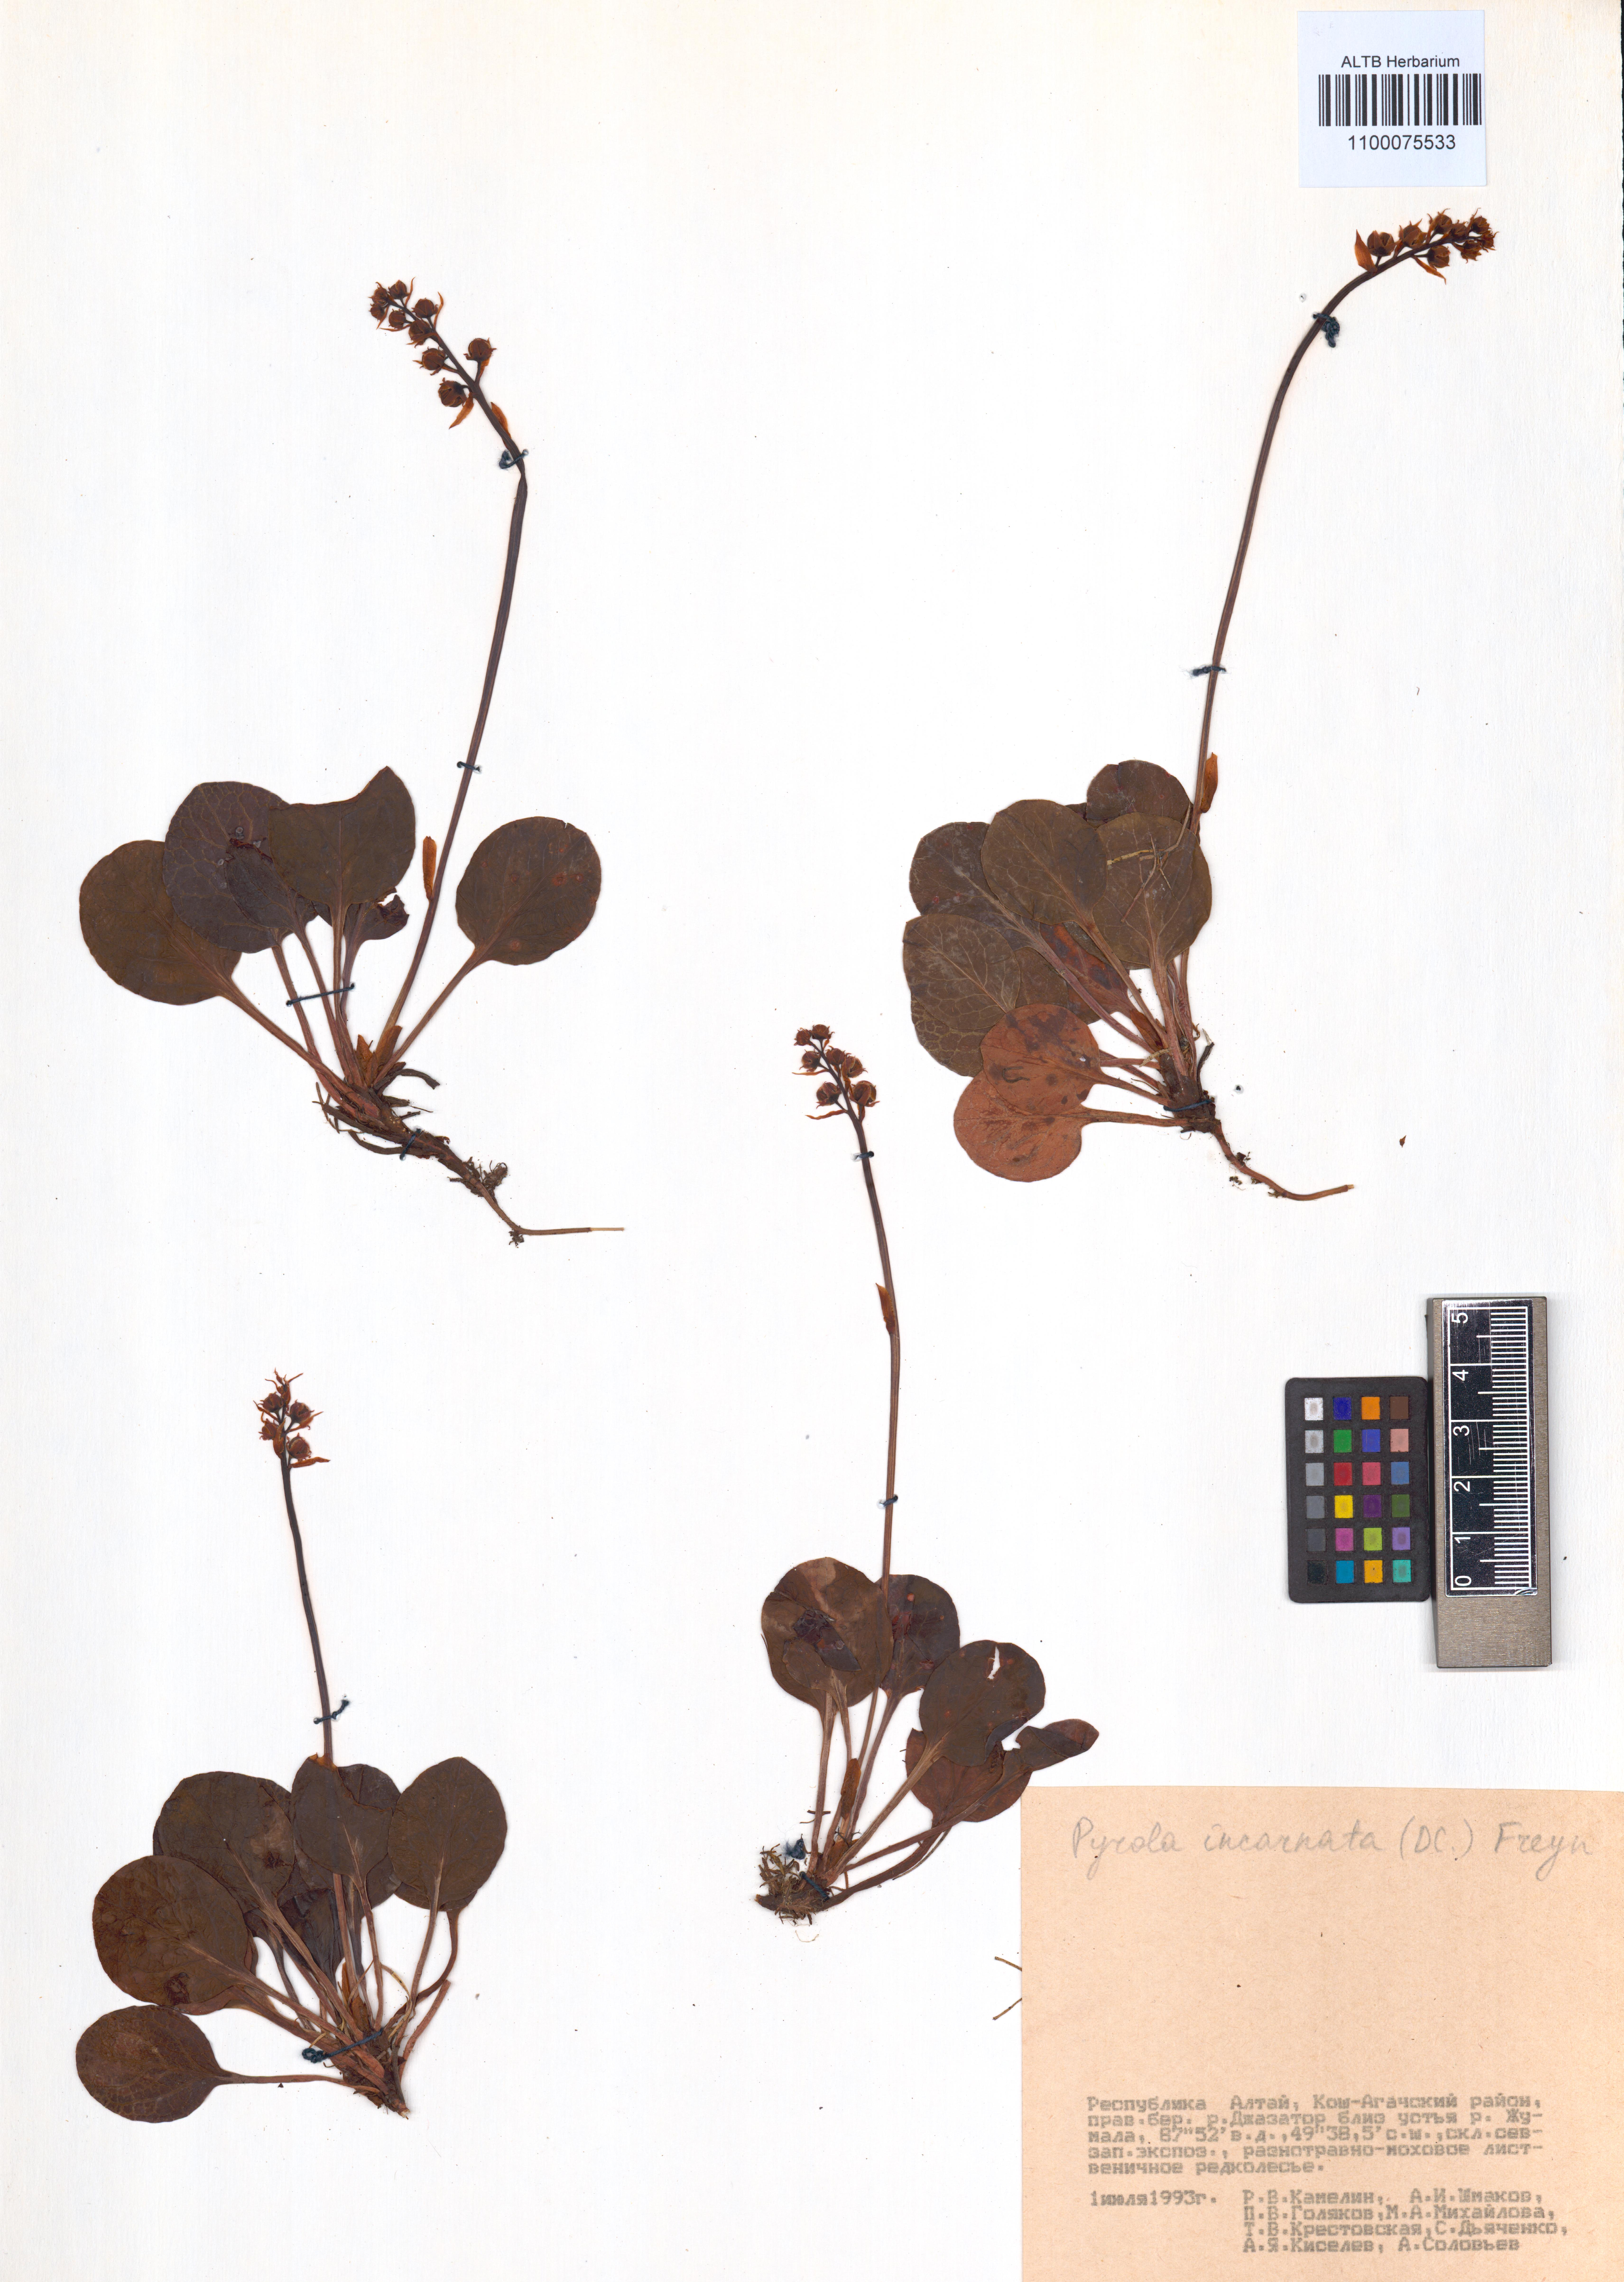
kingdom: Plantae
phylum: Tracheophyta
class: Magnoliopsida
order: Ericales
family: Ericaceae
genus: Pyrola
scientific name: Pyrola asarifolia
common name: Bog wintergreen
